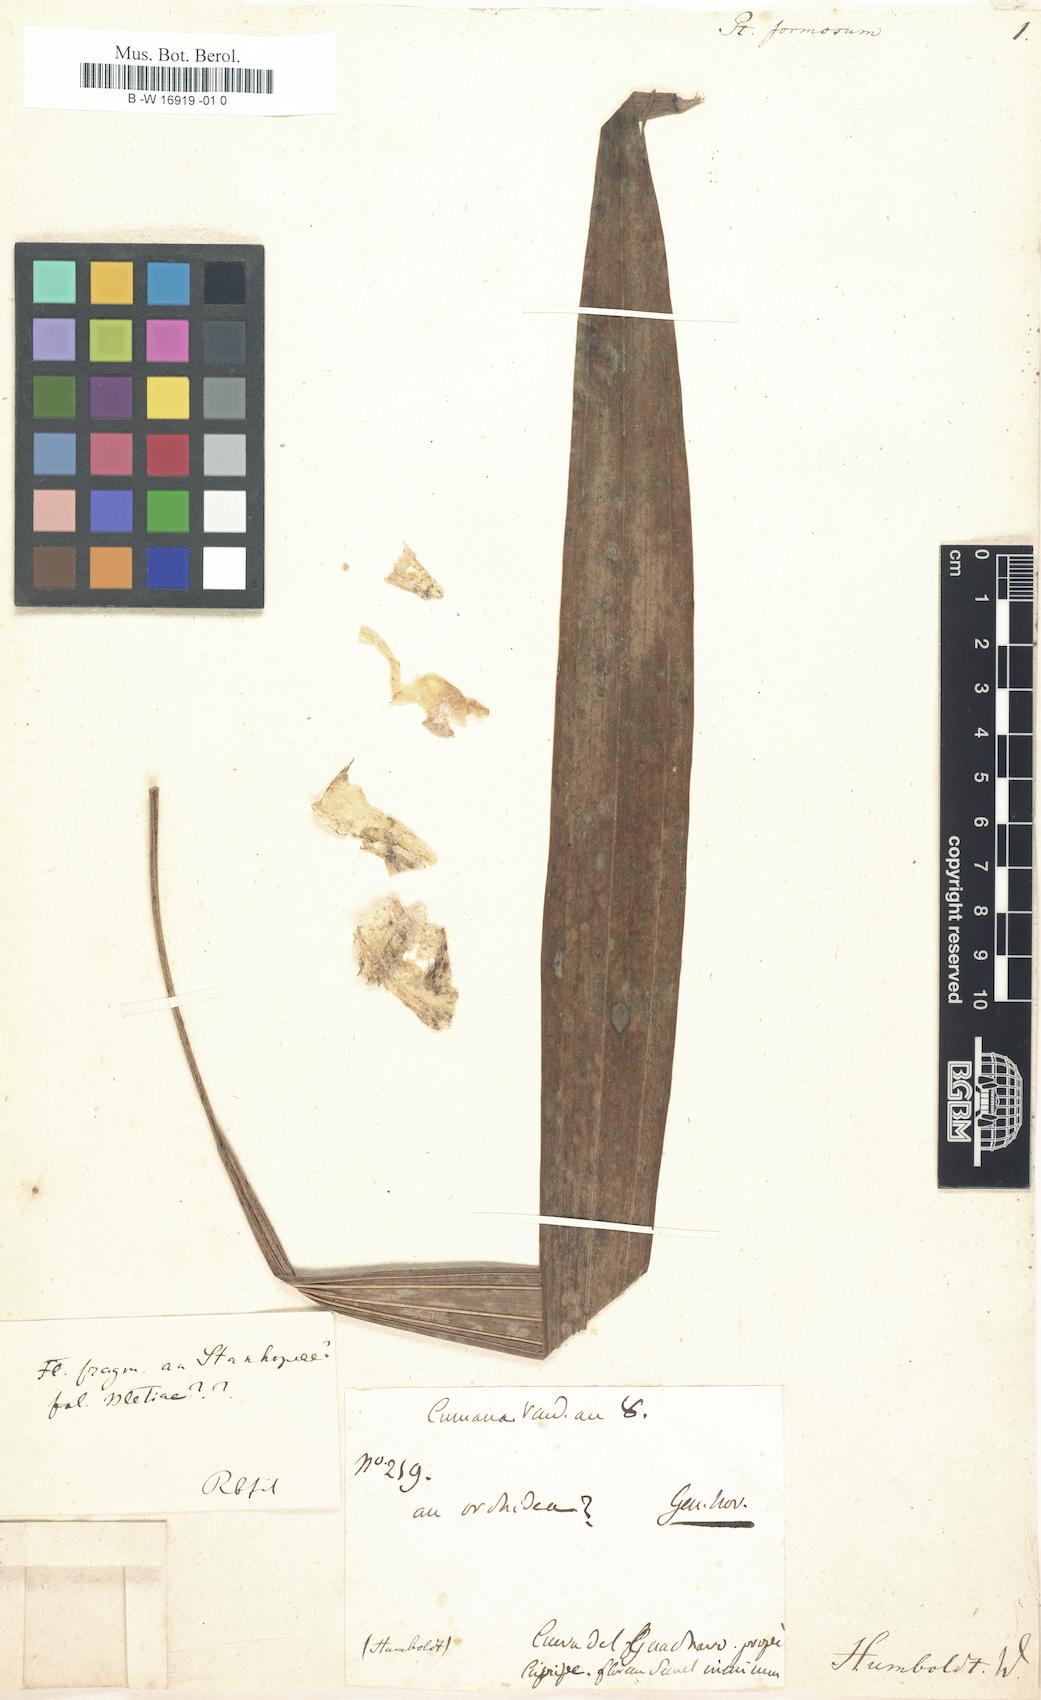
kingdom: Plantae
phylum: Tracheophyta
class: Liliopsida
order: Asparagales
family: Orchidaceae
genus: Pteroceras
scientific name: Pteroceras
